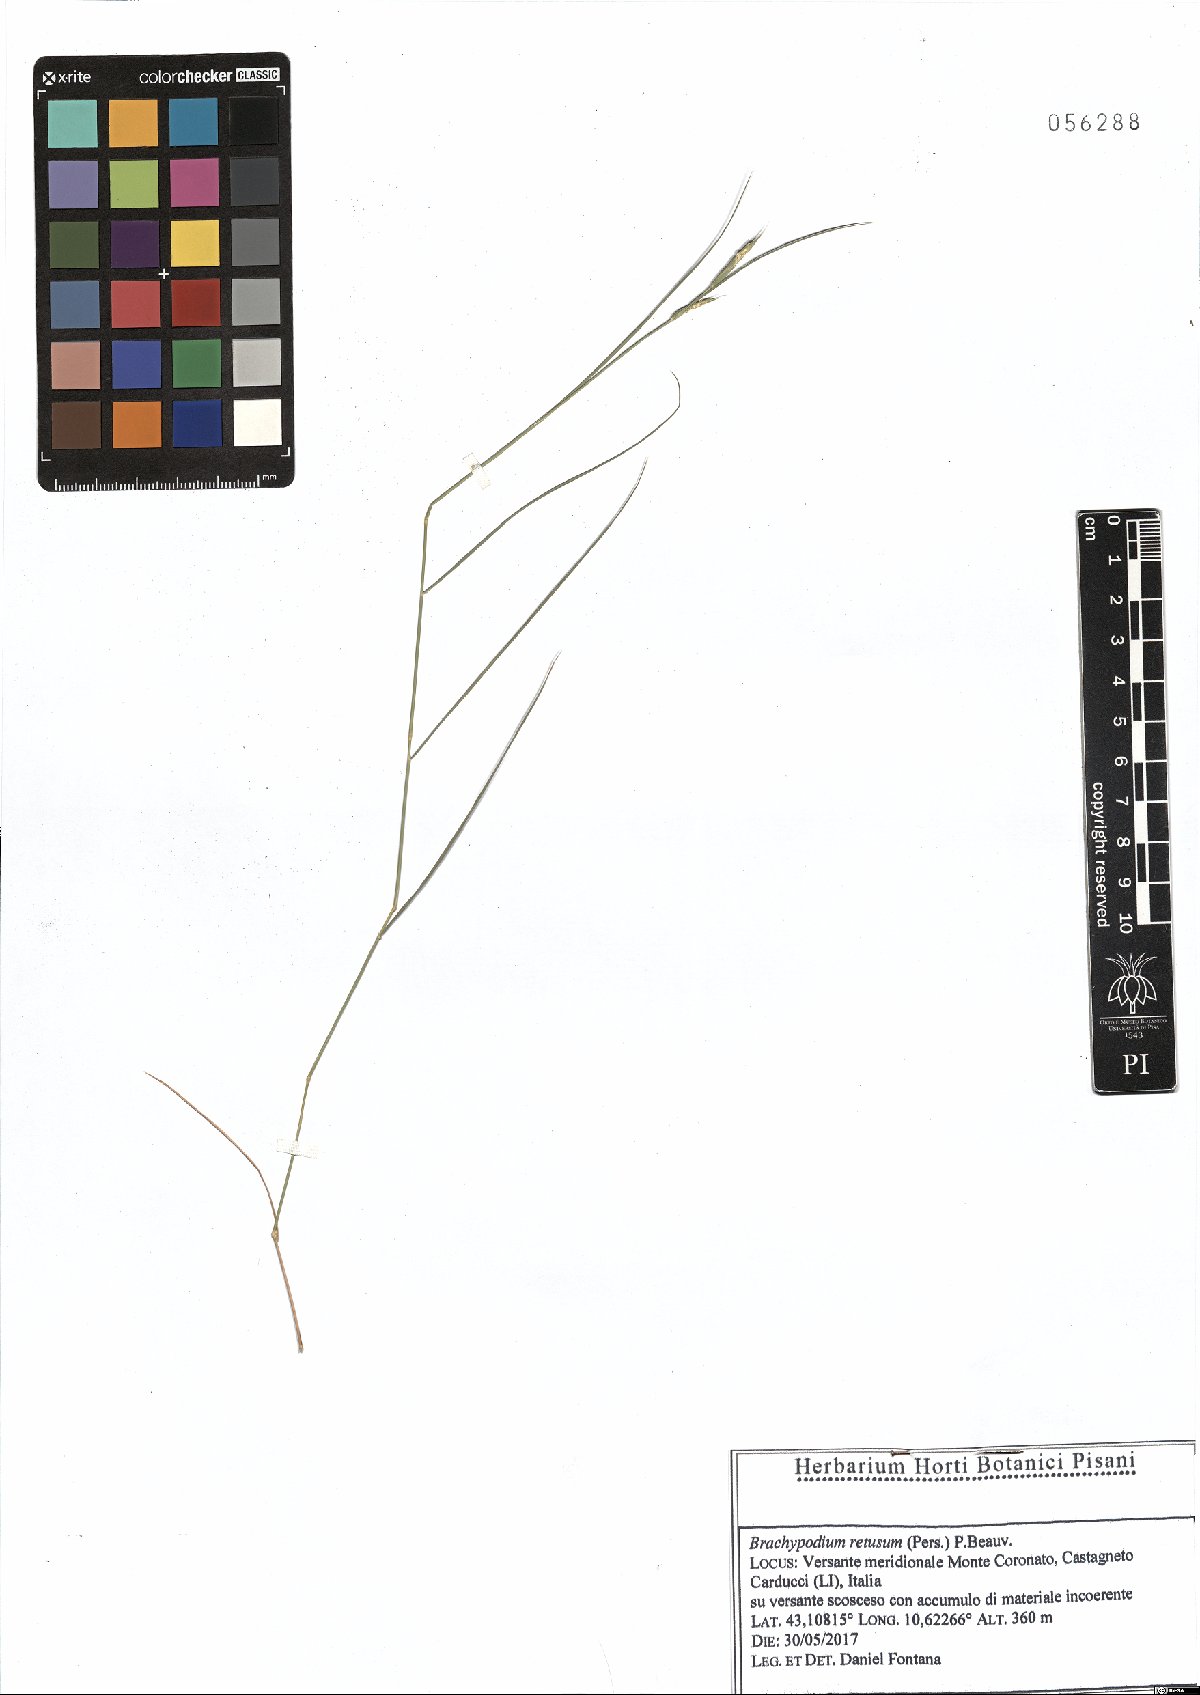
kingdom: Plantae
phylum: Tracheophyta
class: Liliopsida
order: Poales
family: Poaceae
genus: Brachypodium
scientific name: Brachypodium retusum
